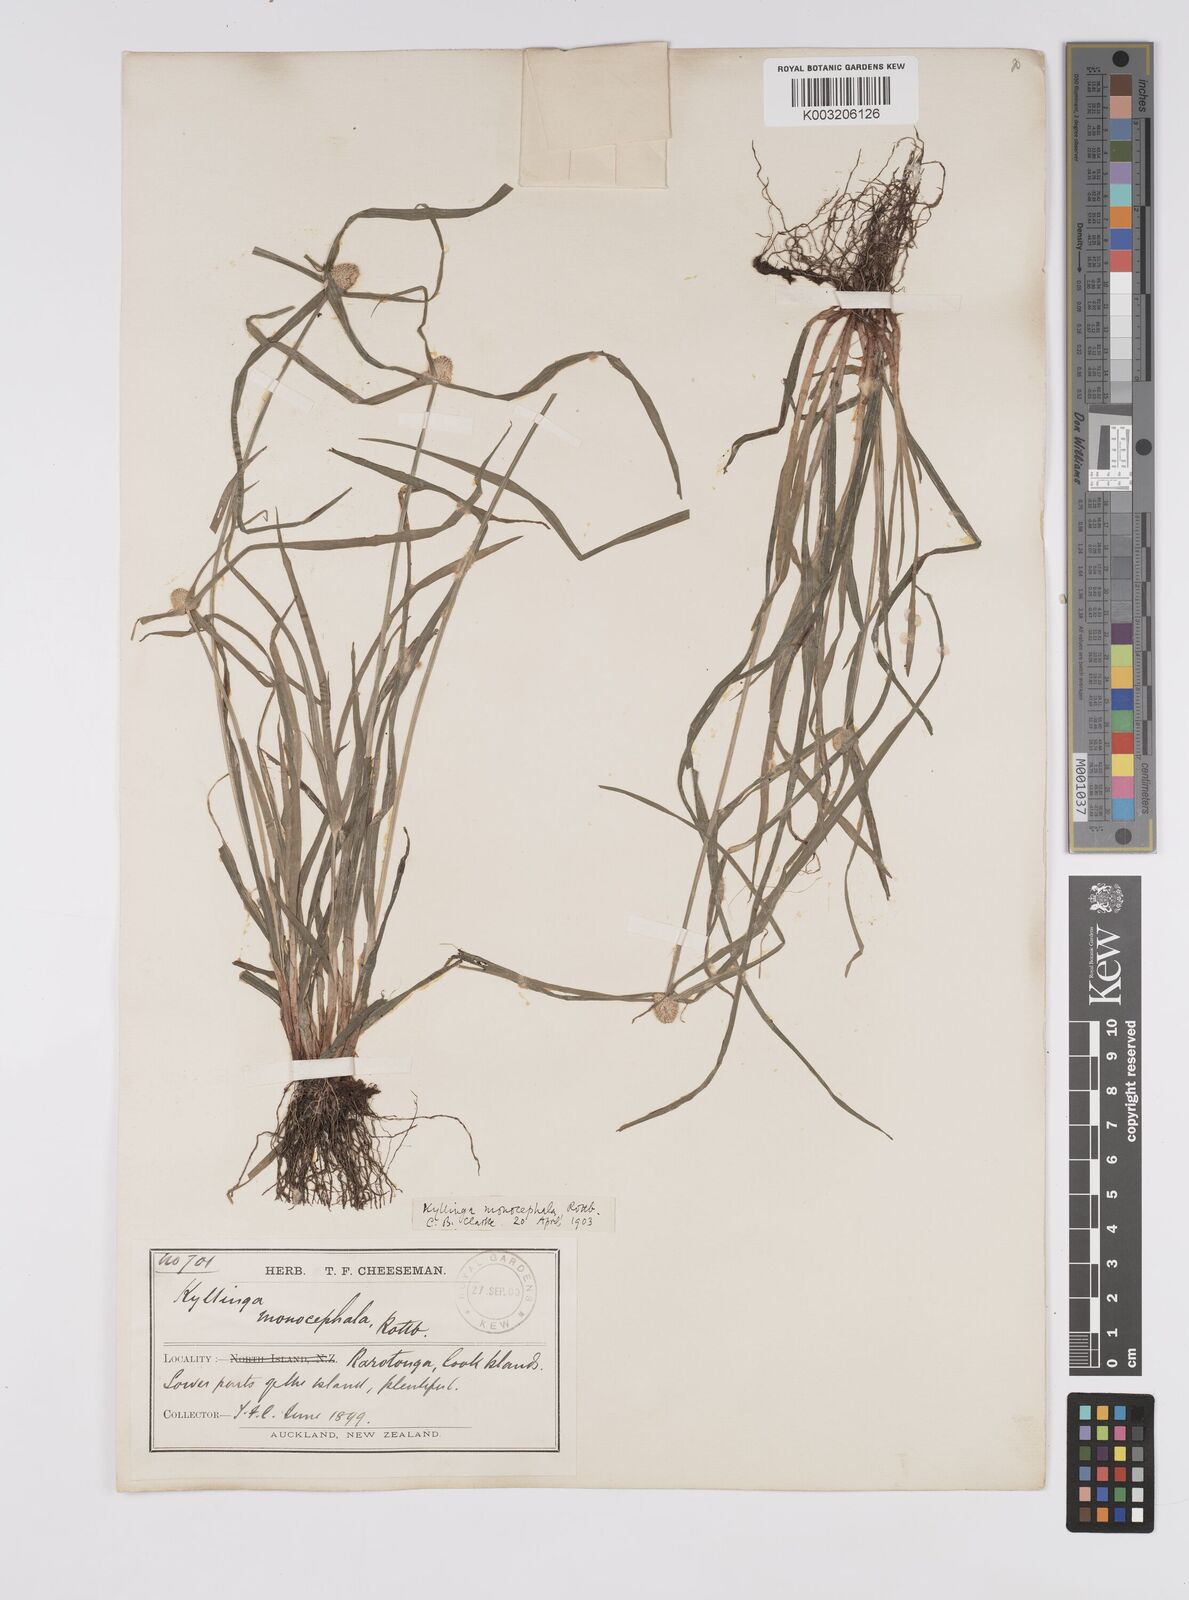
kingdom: Plantae
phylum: Tracheophyta
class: Liliopsida
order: Poales
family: Cyperaceae
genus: Cyperus
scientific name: Cyperus nemoralis
